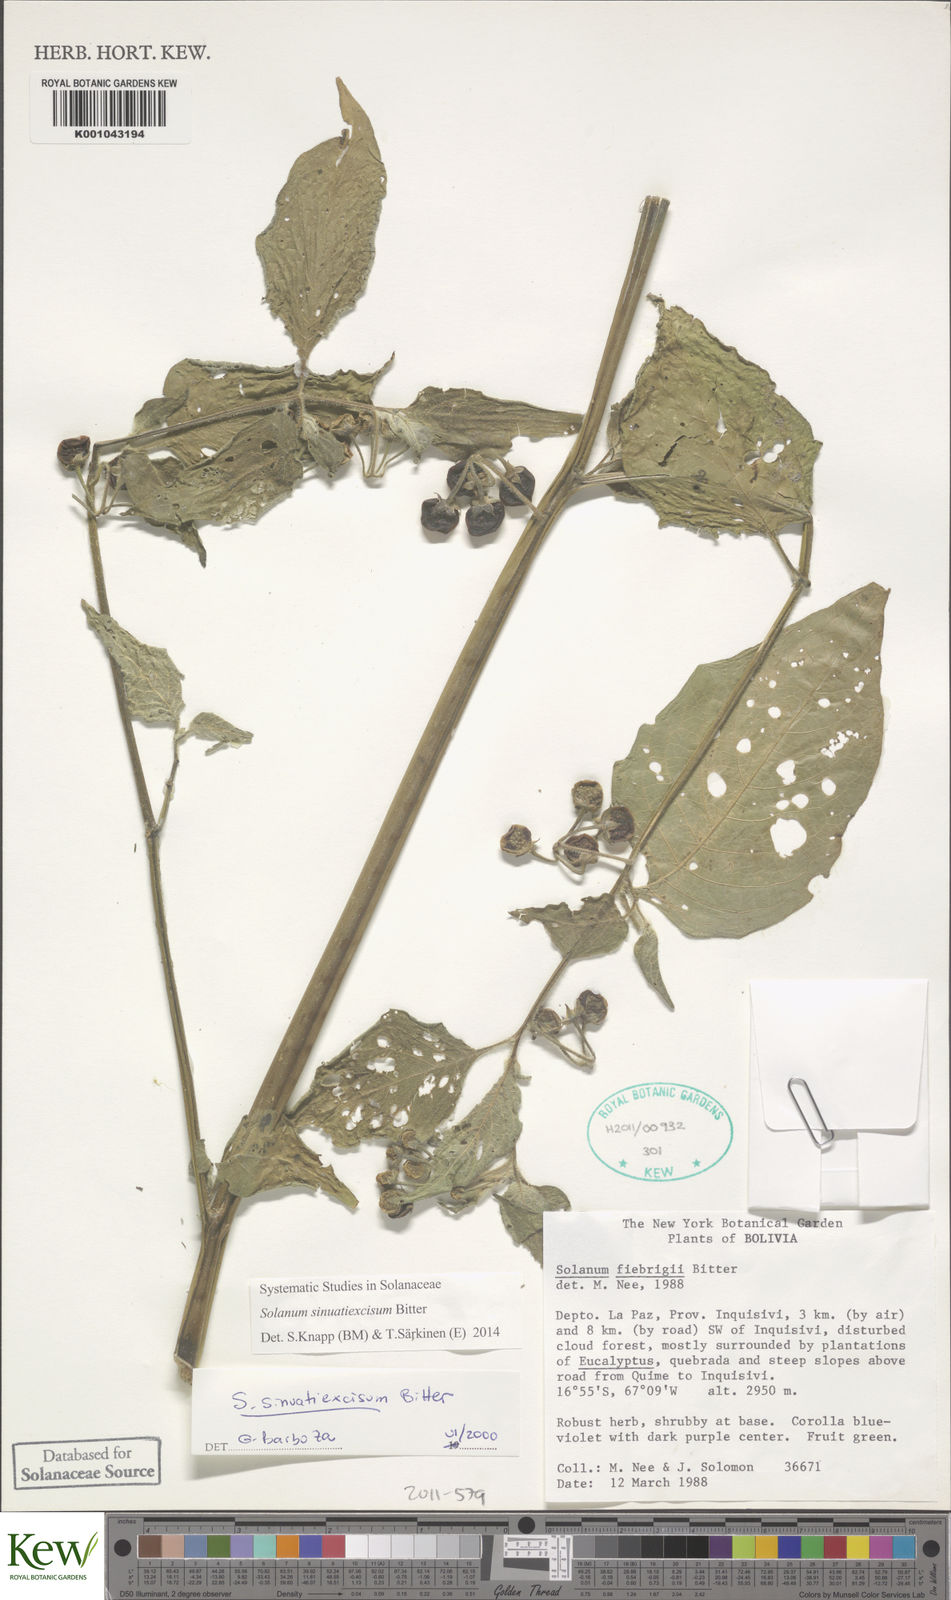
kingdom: Plantae
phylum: Tracheophyta
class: Magnoliopsida
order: Solanales
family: Solanaceae
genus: Solanum
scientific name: Solanum sinuatiexcisum
